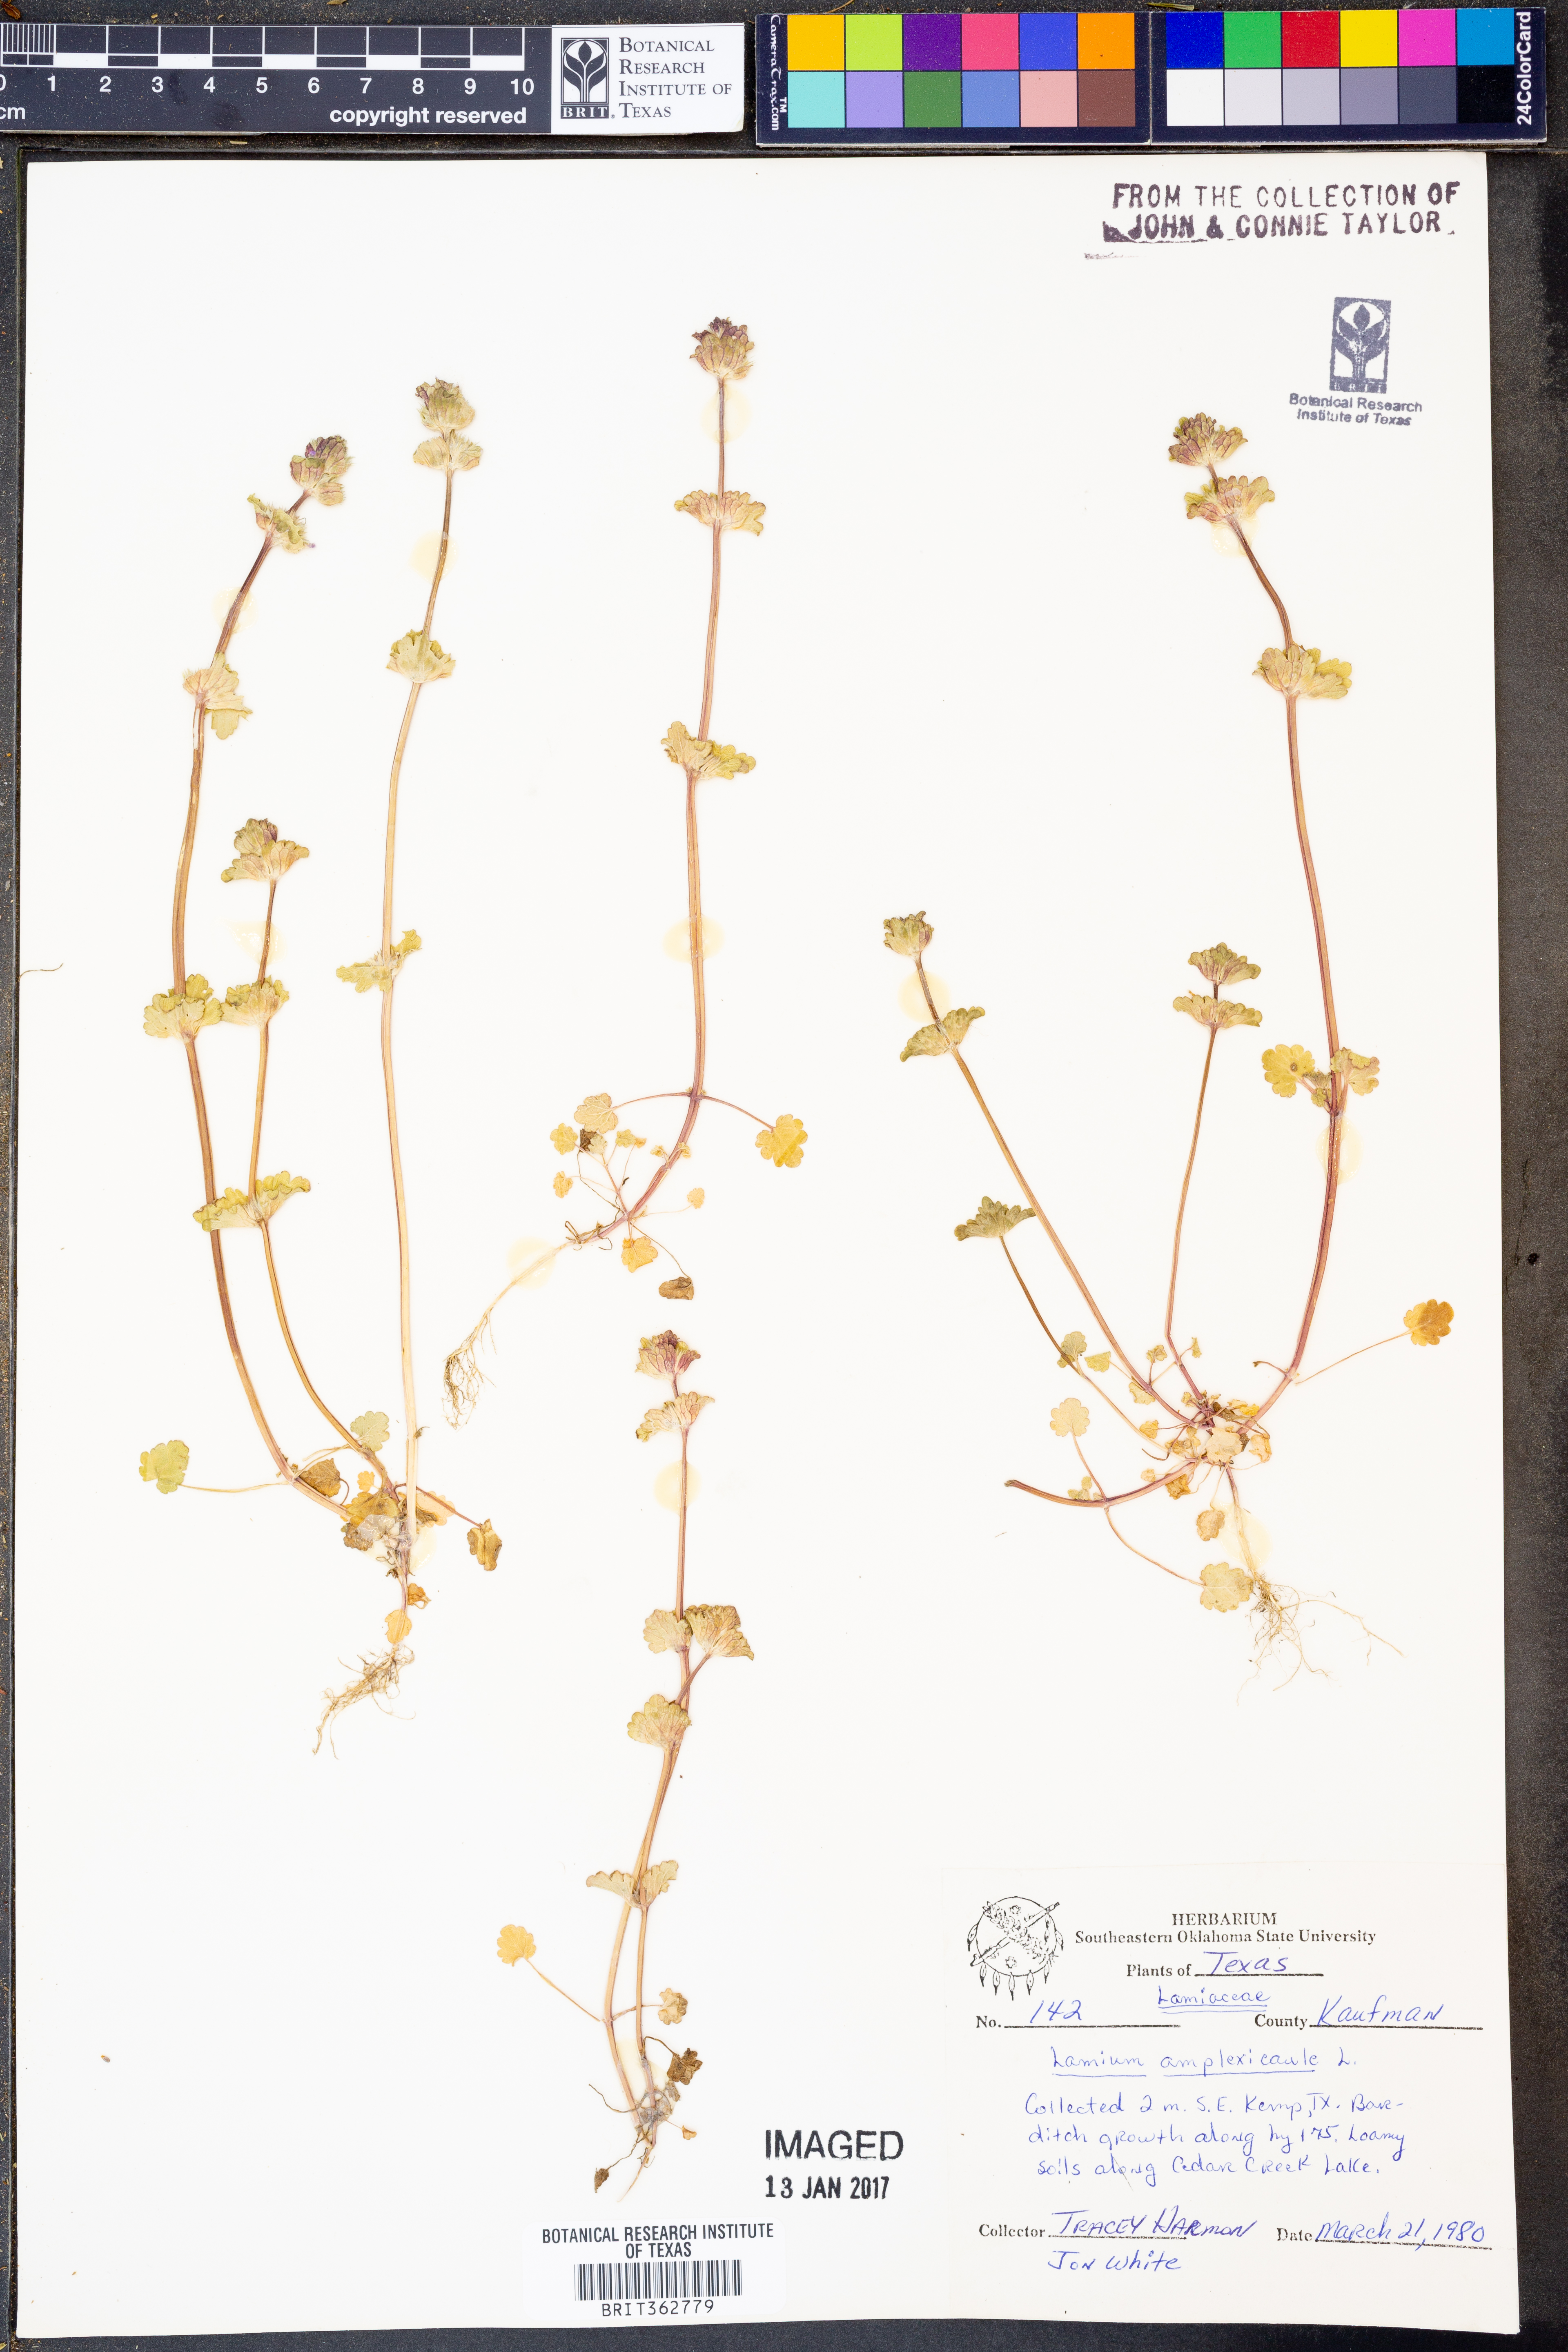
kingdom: Plantae
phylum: Tracheophyta
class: Magnoliopsida
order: Lamiales
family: Lamiaceae
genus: Lamium
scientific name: Lamium amplexicaule
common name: Henbit dead-nettle
